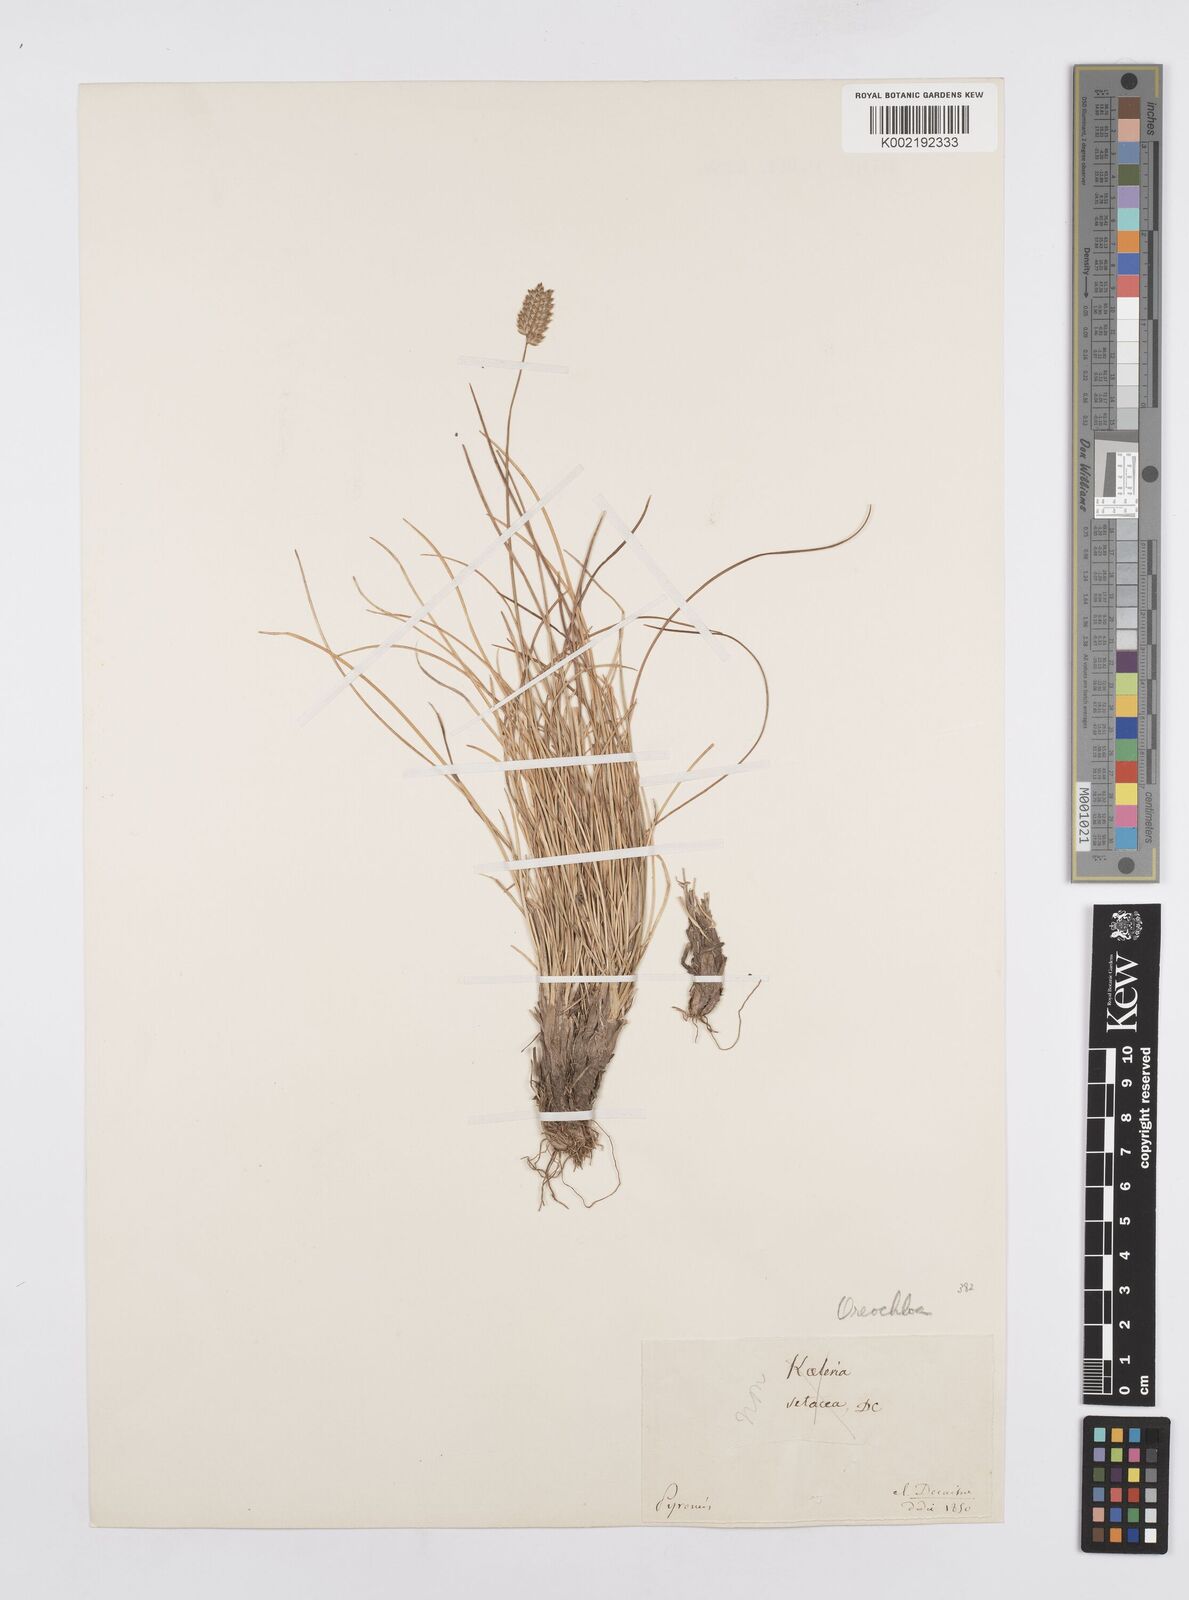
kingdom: Plantae
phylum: Tracheophyta
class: Liliopsida
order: Poales
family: Poaceae
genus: Oreochloa
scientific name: Oreochloa elegans
